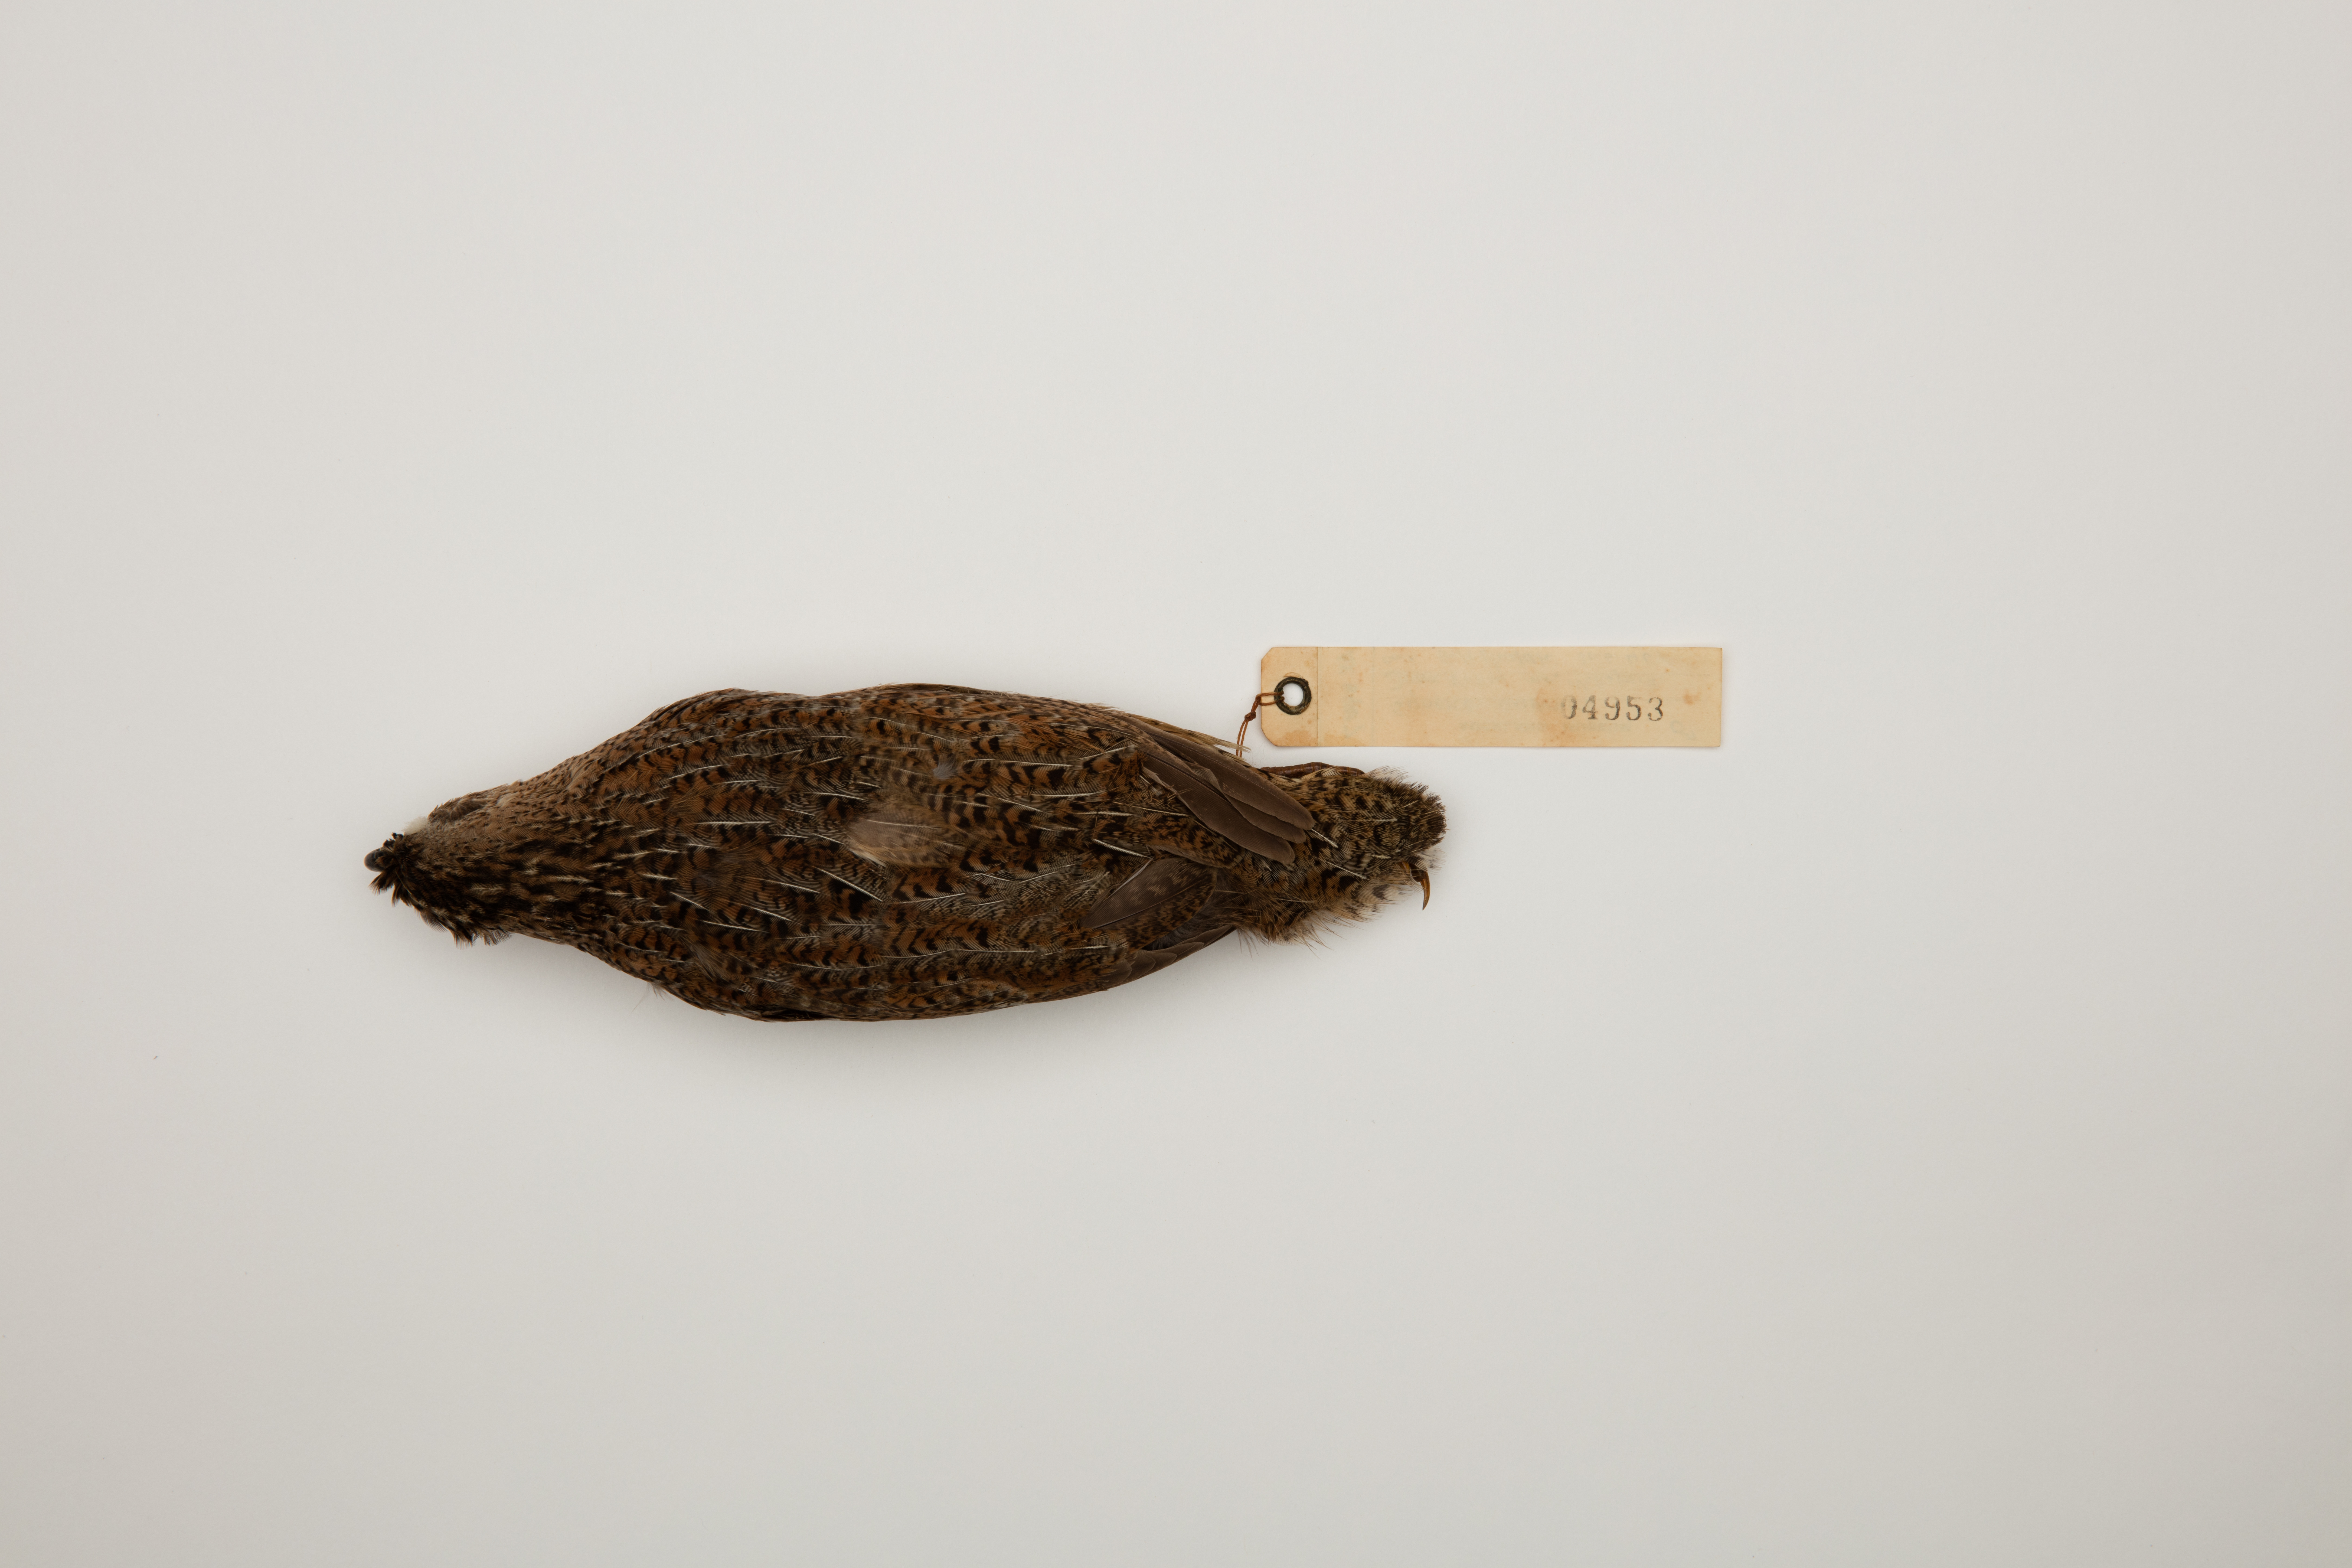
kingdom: Animalia
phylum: Chordata
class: Aves
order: Galliformes
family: Phasianidae
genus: Synoicus
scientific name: Synoicus ypsilophorus
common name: Brown quail
